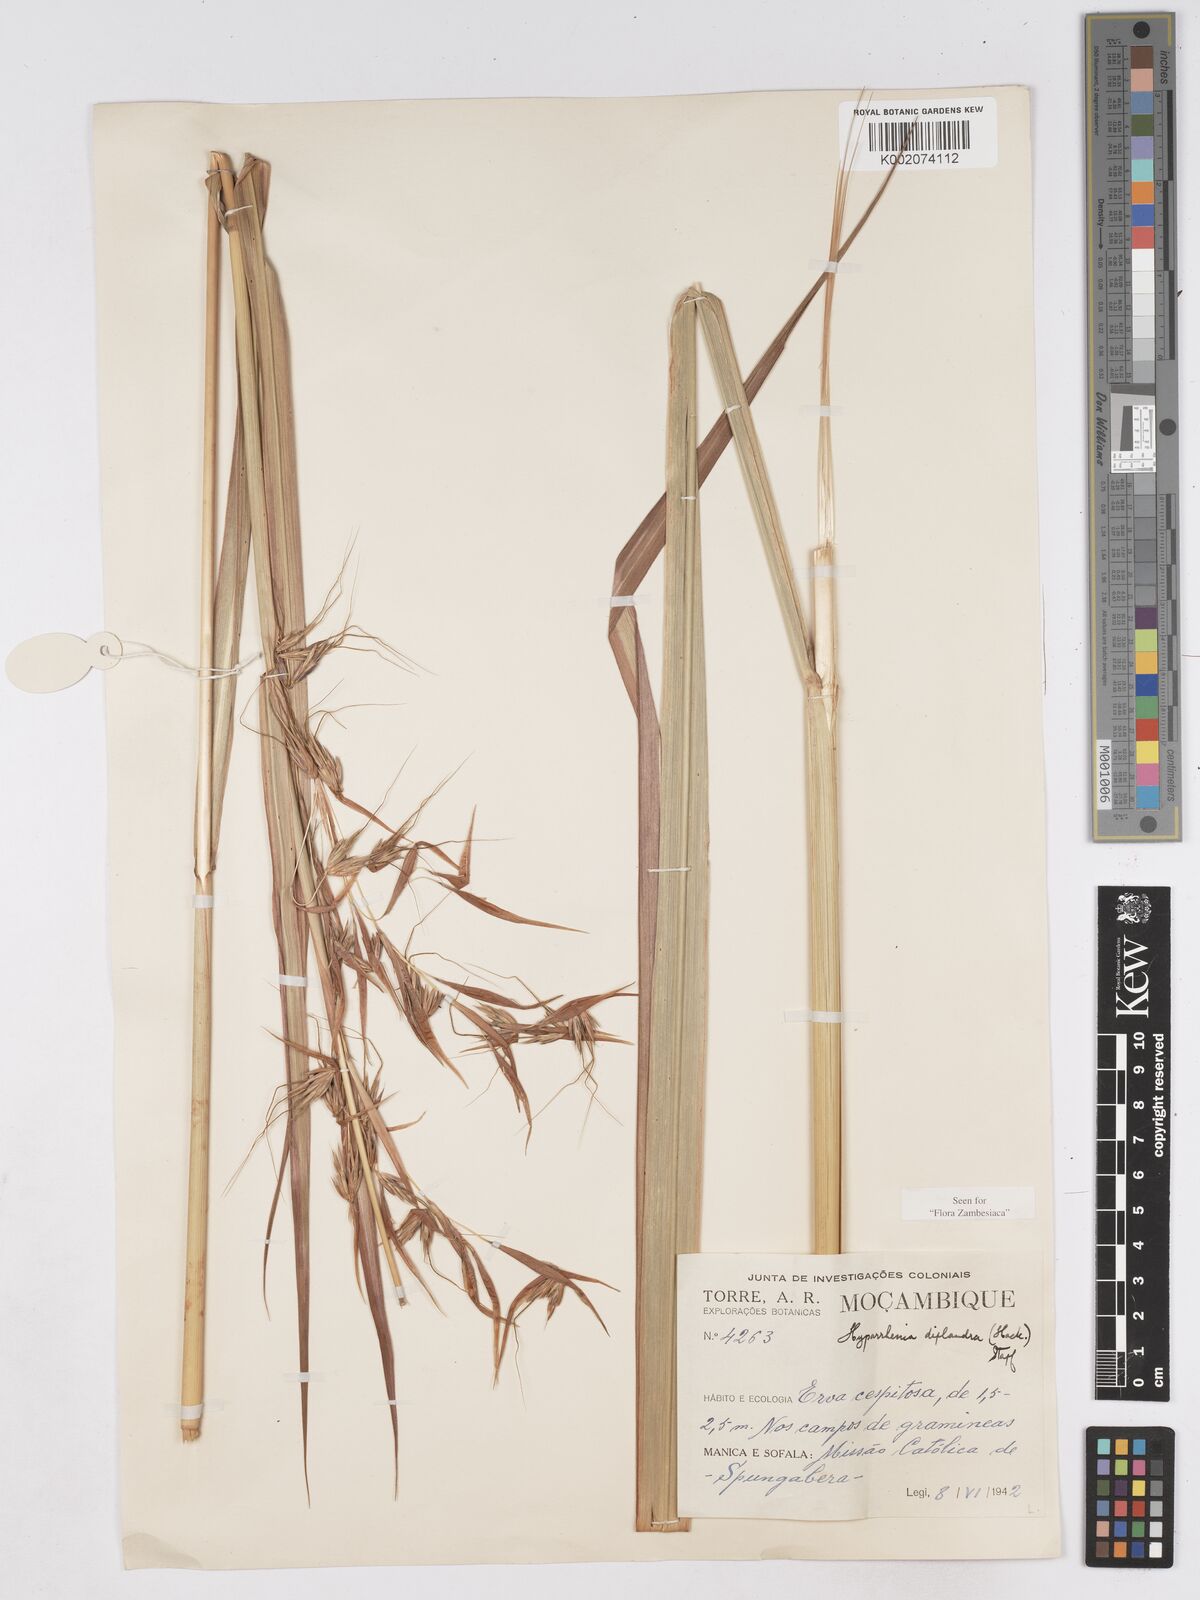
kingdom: Plantae
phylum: Tracheophyta
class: Liliopsida
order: Poales
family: Poaceae
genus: Hyparrhenia
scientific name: Hyparrhenia diplandra
